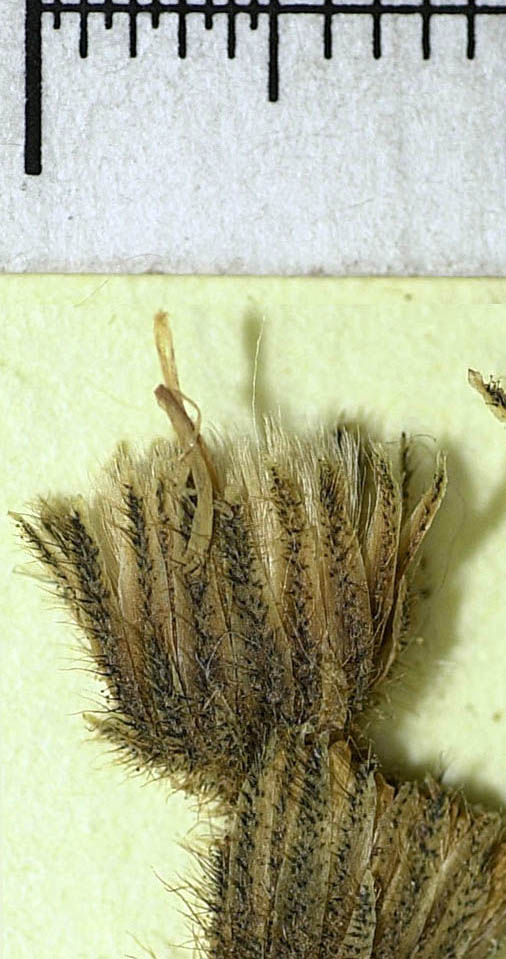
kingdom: Plantae
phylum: Tracheophyta
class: Magnoliopsida
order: Asterales
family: Asteraceae
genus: Pilosella
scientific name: Pilosella leptophyton
